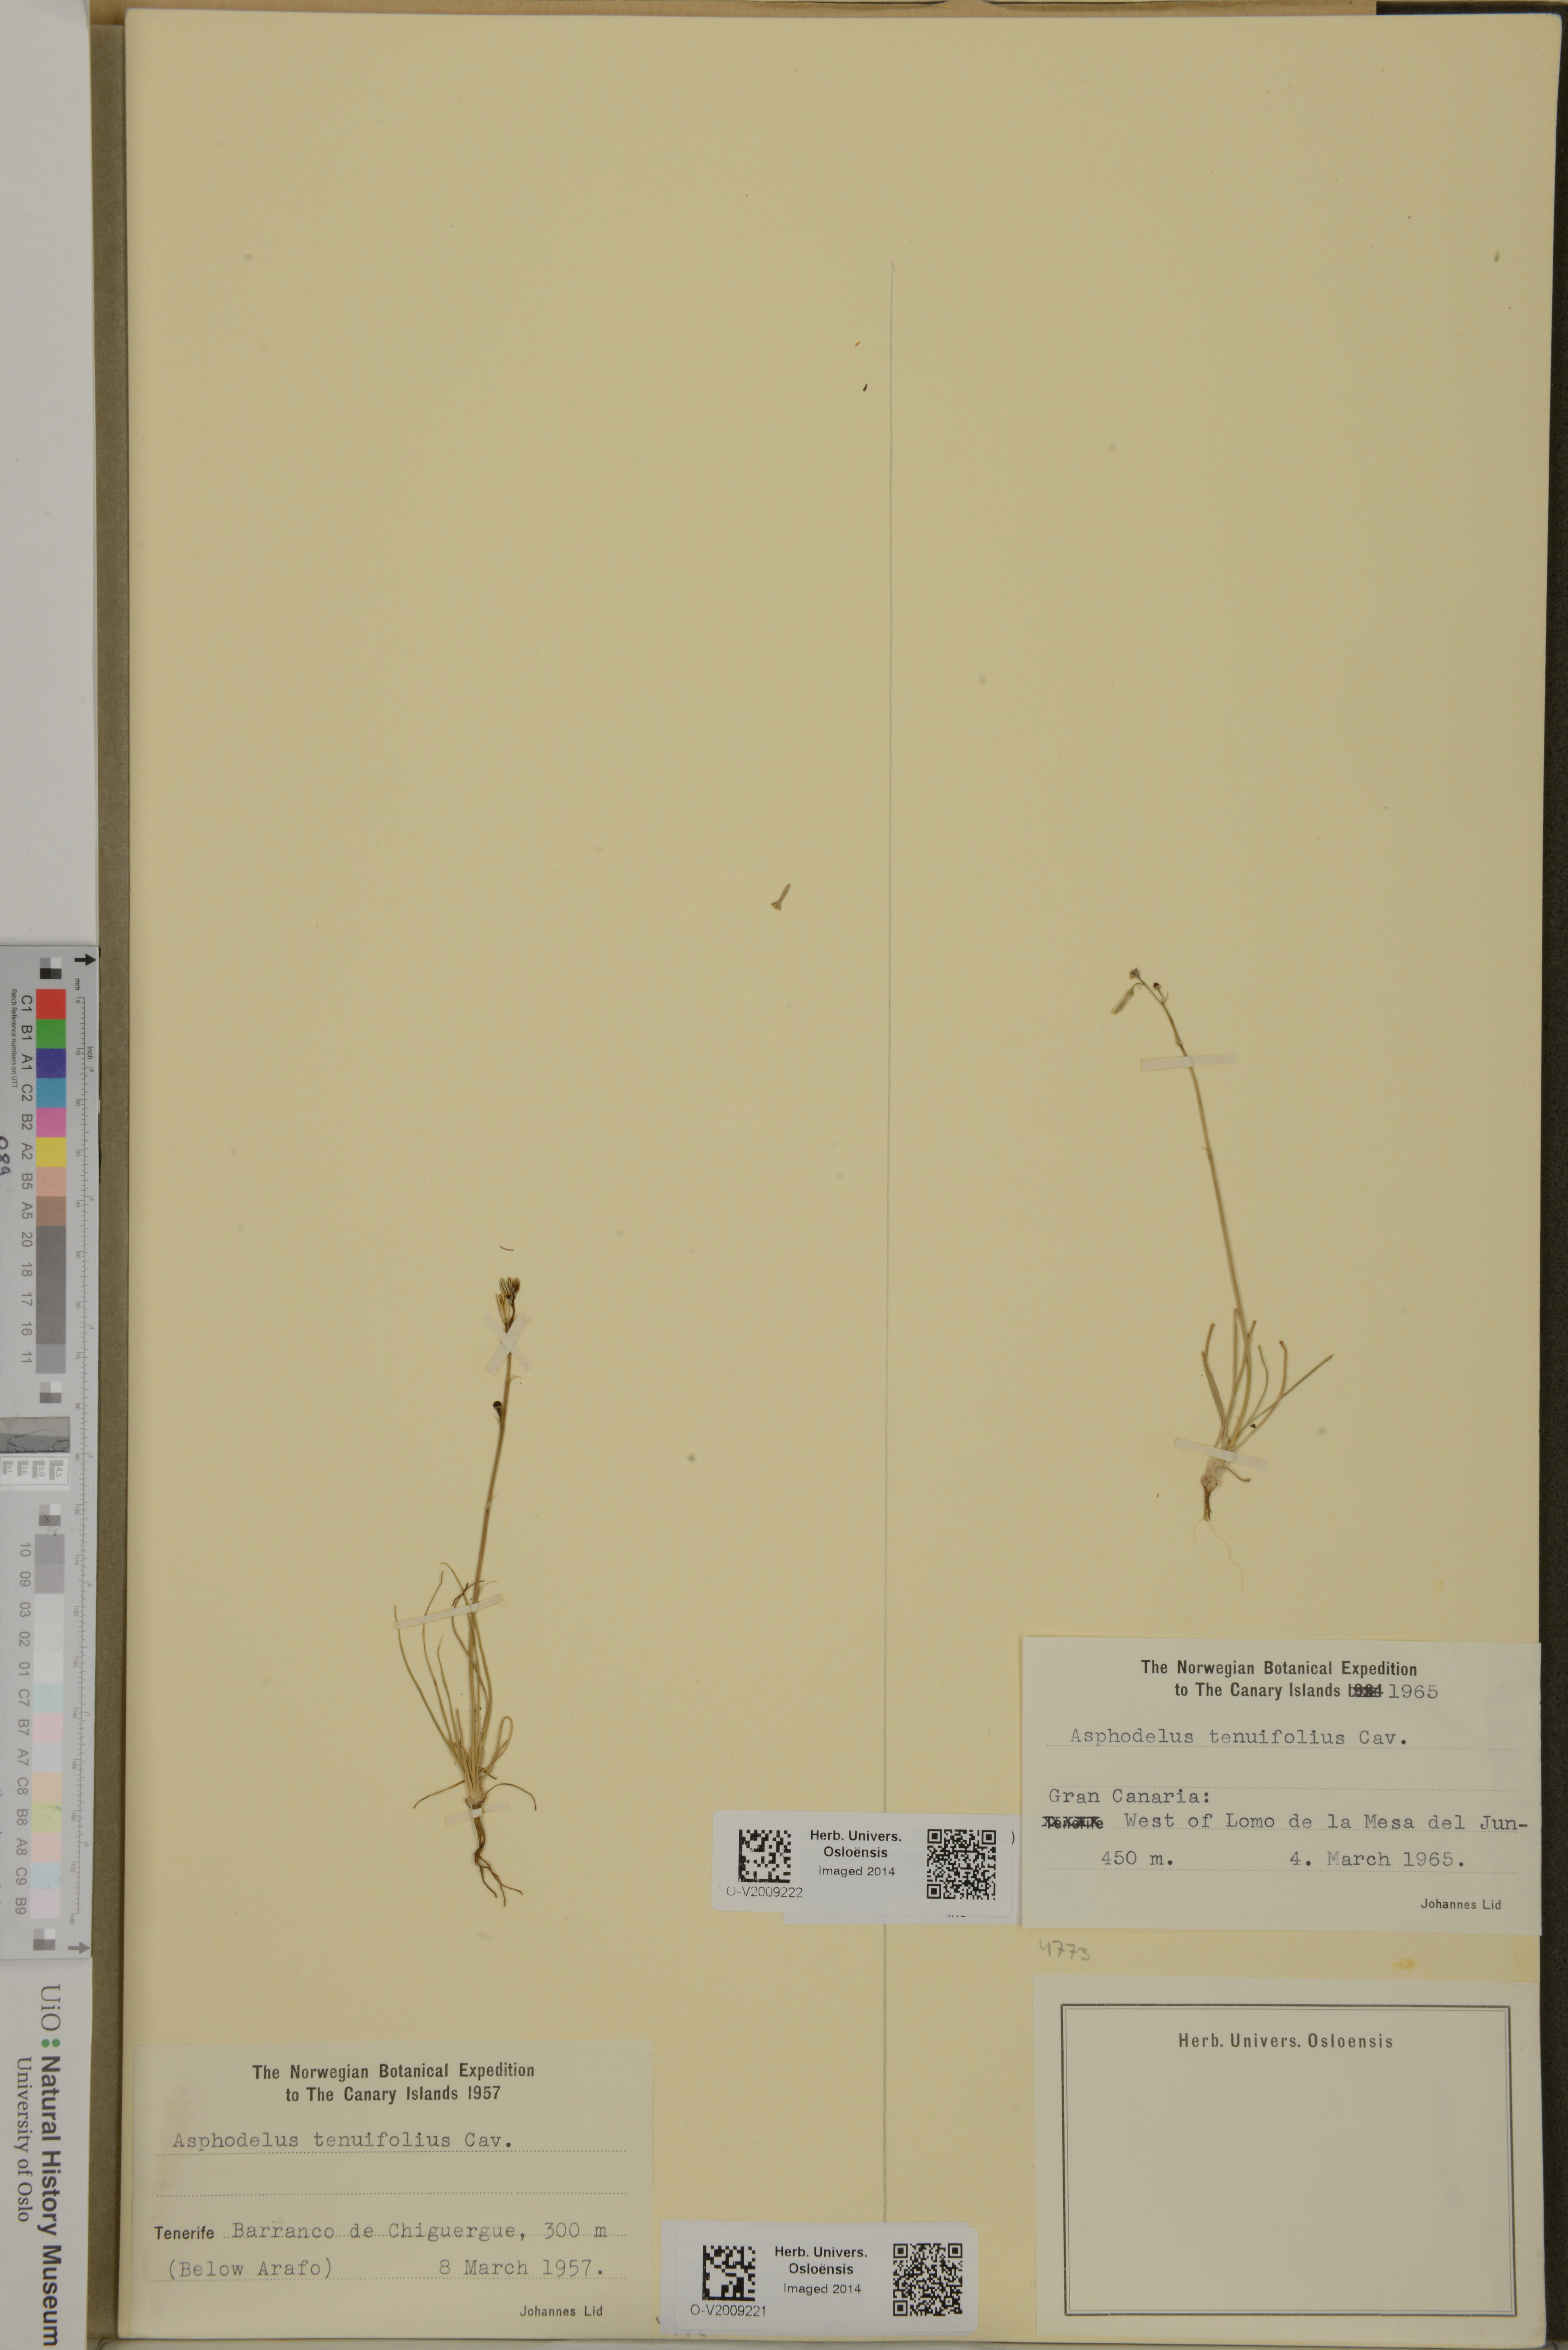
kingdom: Plantae
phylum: Tracheophyta
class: Liliopsida
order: Asparagales
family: Asphodelaceae
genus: Asphodelus
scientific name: Asphodelus tenuifolius
